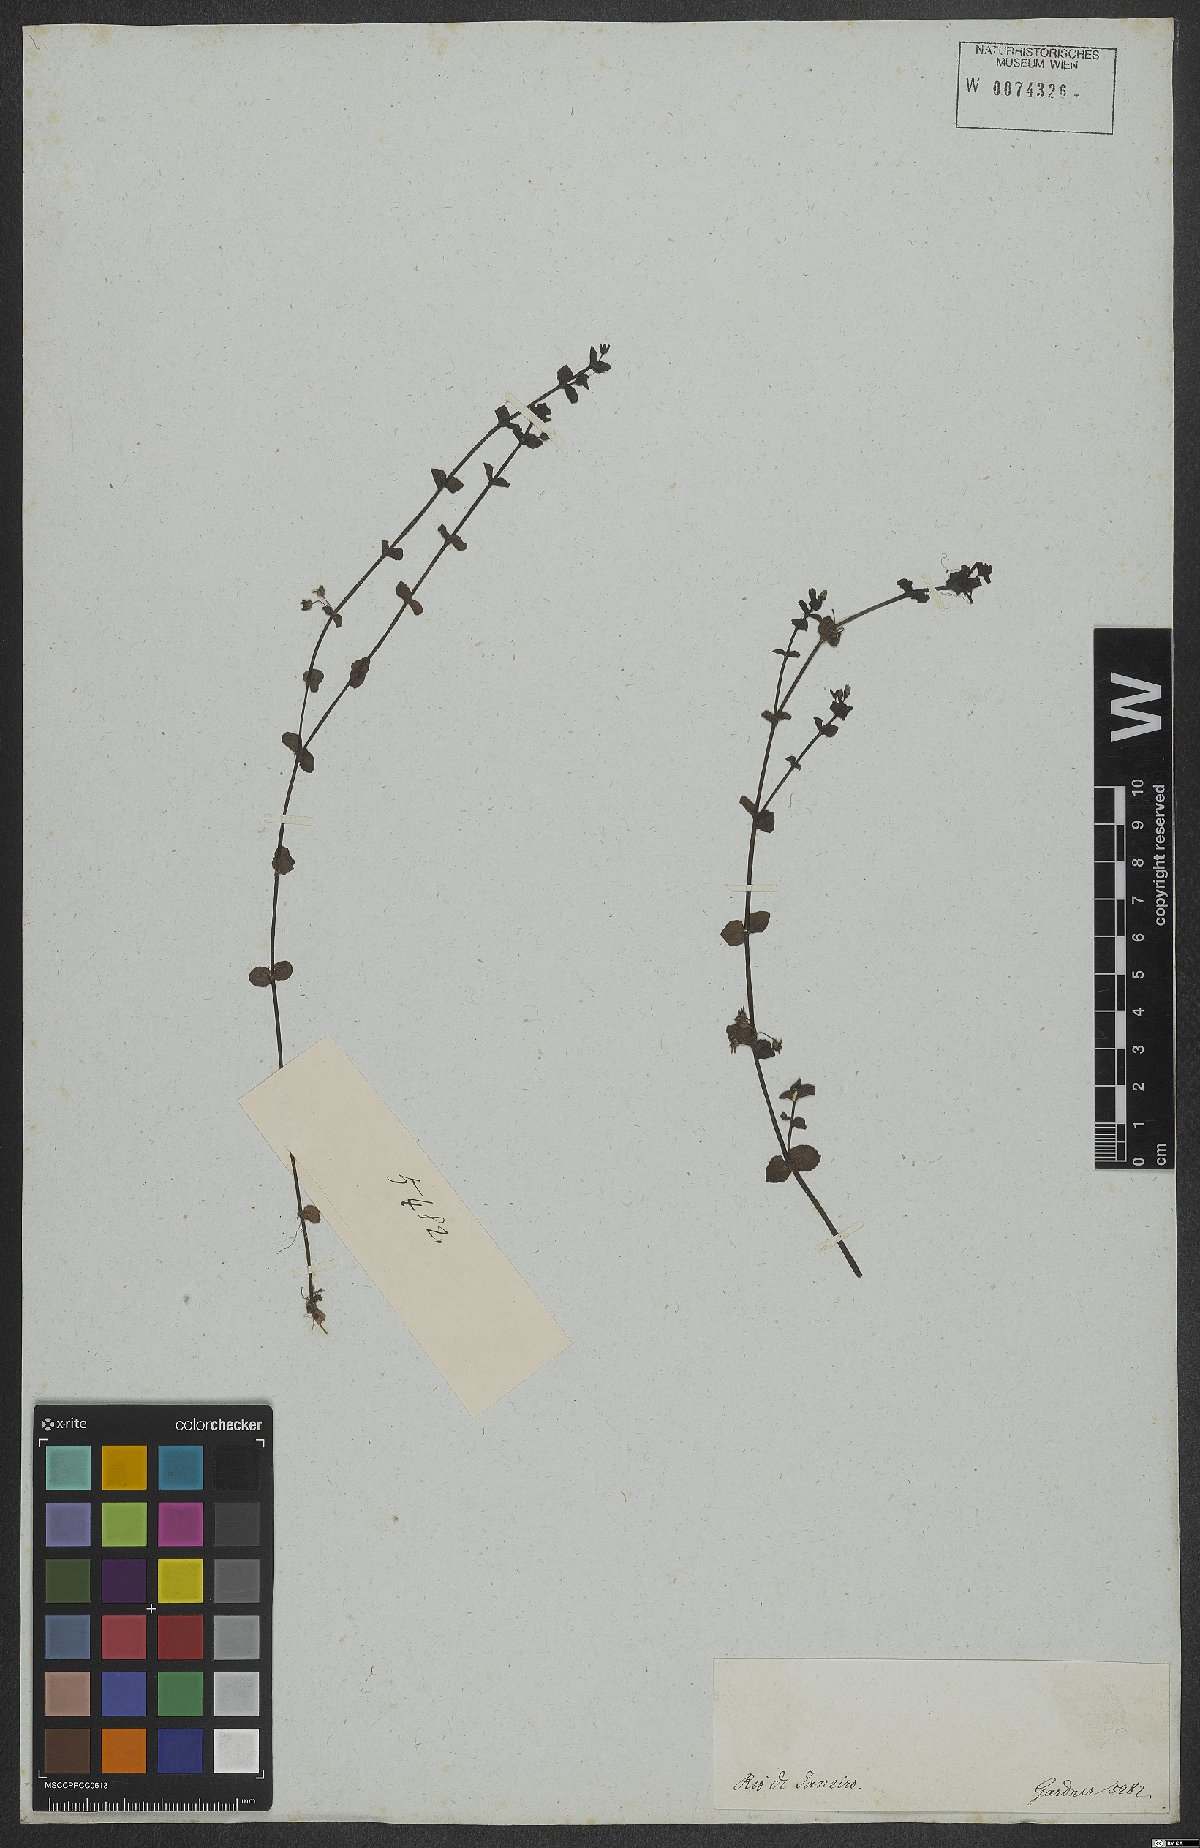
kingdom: Plantae
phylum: Tracheophyta
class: Magnoliopsida
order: Lamiales
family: Plantaginaceae
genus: Conobea
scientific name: Conobea
